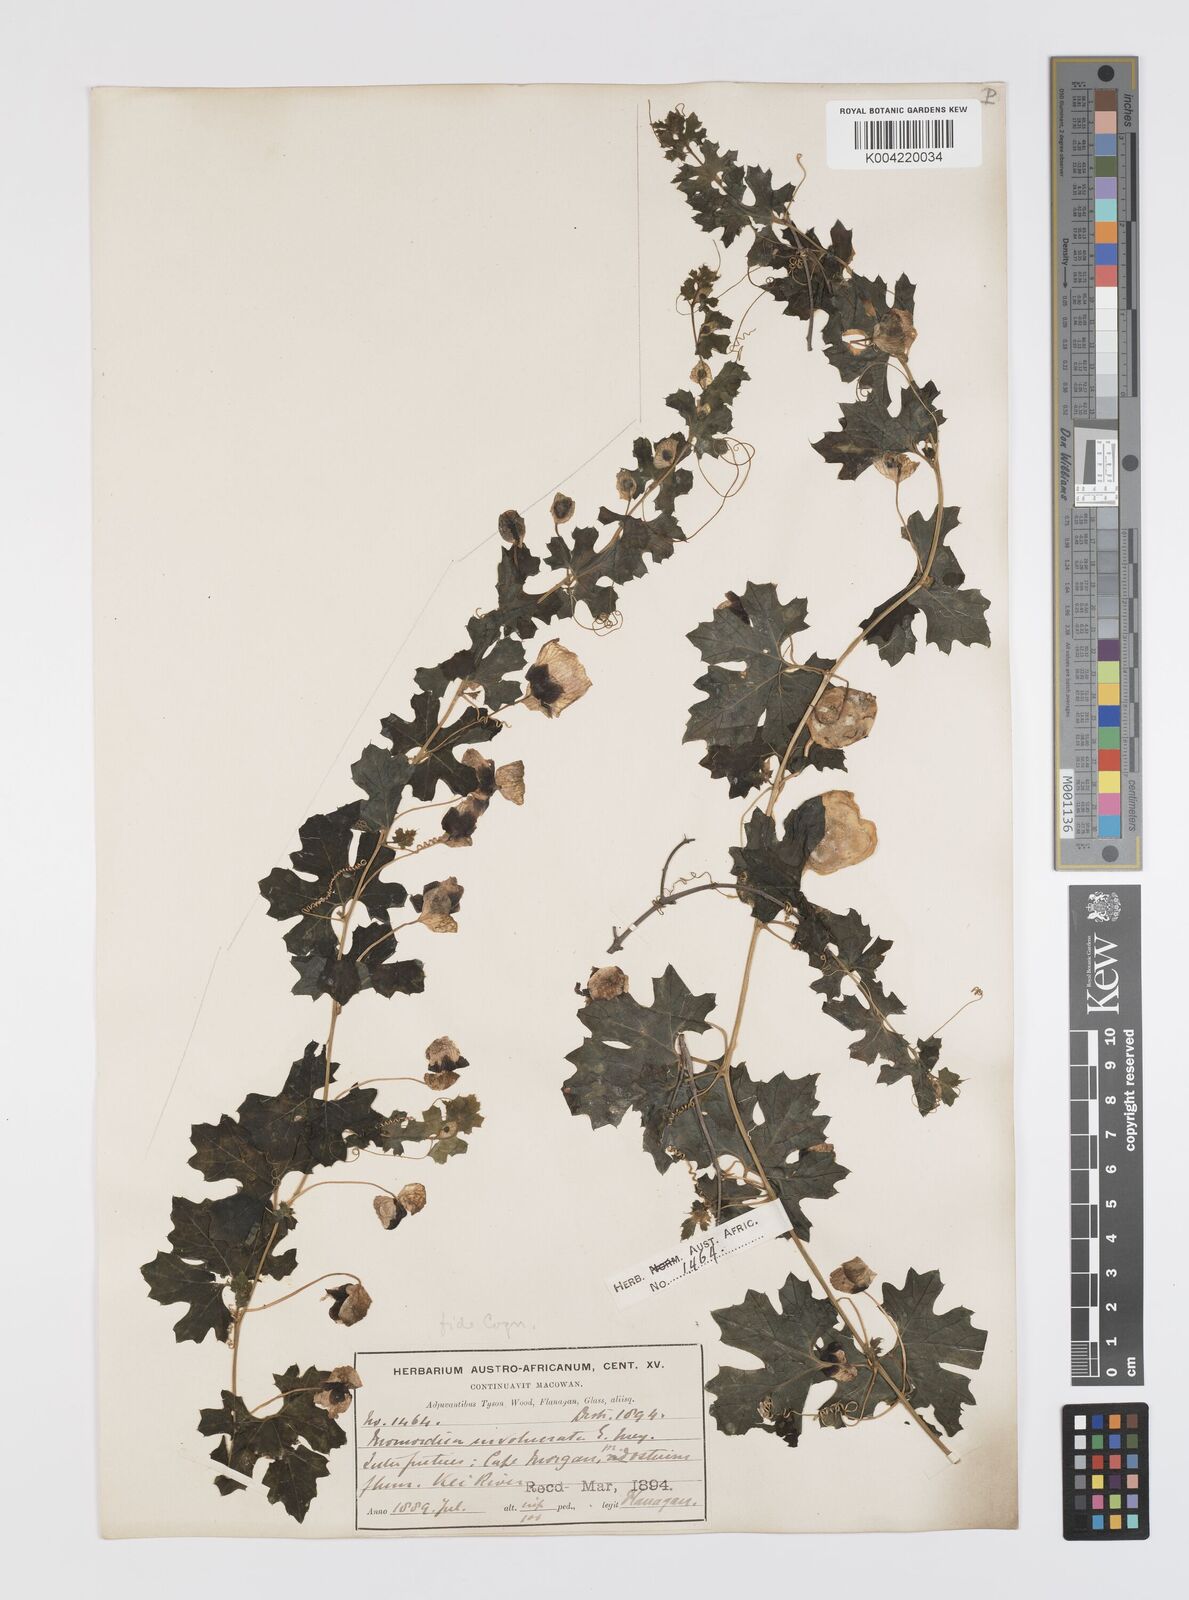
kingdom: Plantae
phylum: Tracheophyta
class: Magnoliopsida
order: Cucurbitales
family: Cucurbitaceae
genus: Momordica
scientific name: Momordica balsamina
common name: Southern balsampear
